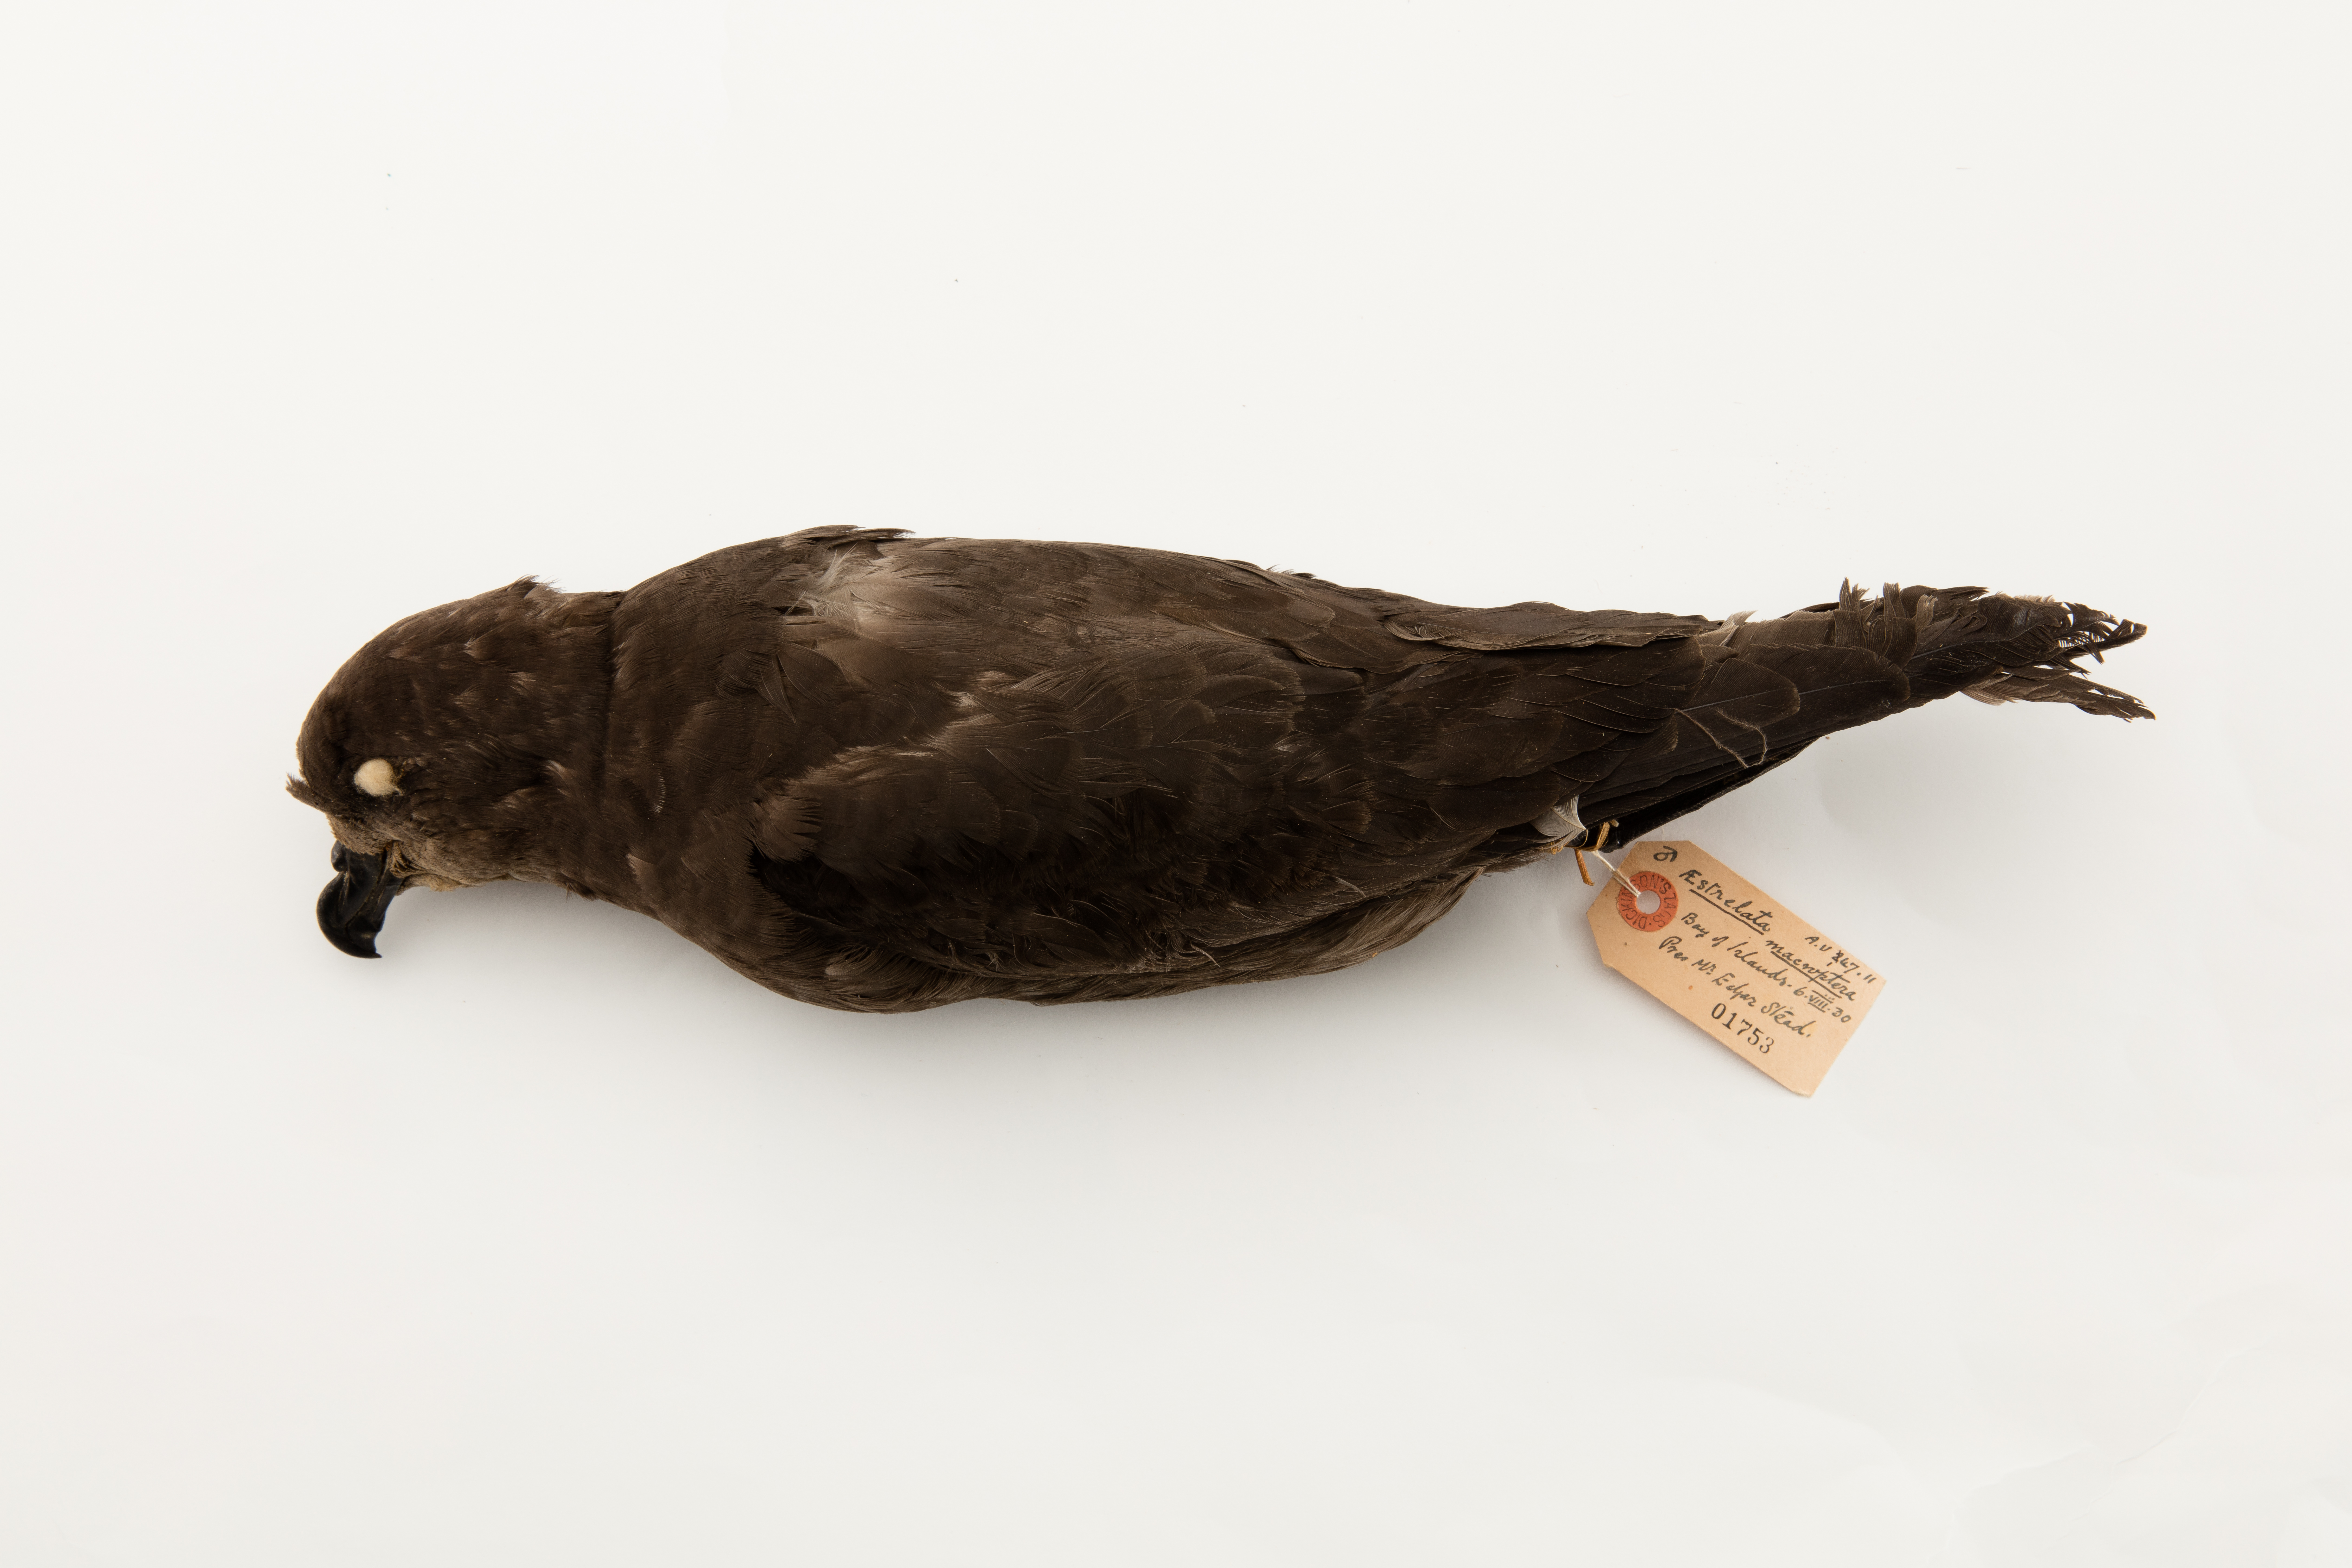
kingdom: Animalia
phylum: Chordata
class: Aves
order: Procellariiformes
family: Procellariidae
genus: Pterodroma
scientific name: Pterodroma macroptera
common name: Great-winged petrel
